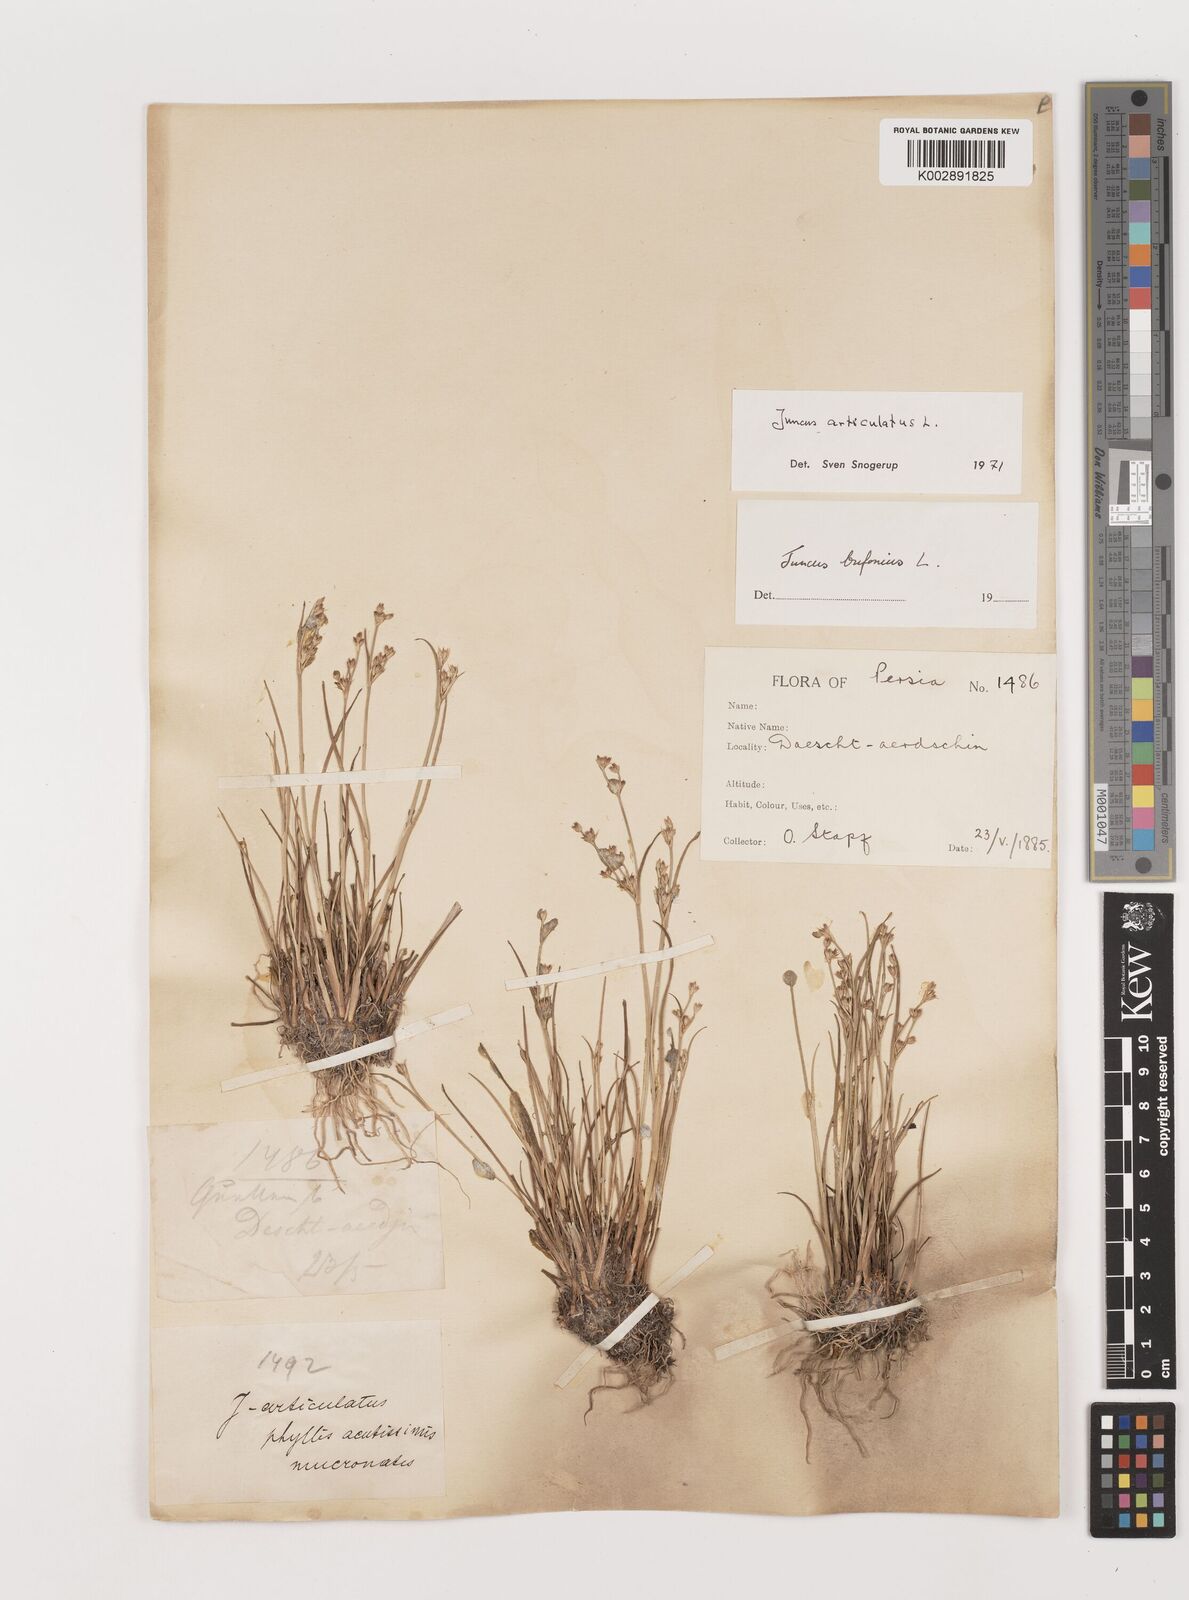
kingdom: Plantae
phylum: Tracheophyta
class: Liliopsida
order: Poales
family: Juncaceae
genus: Juncus
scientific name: Juncus articulatus
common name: Jointed rush
